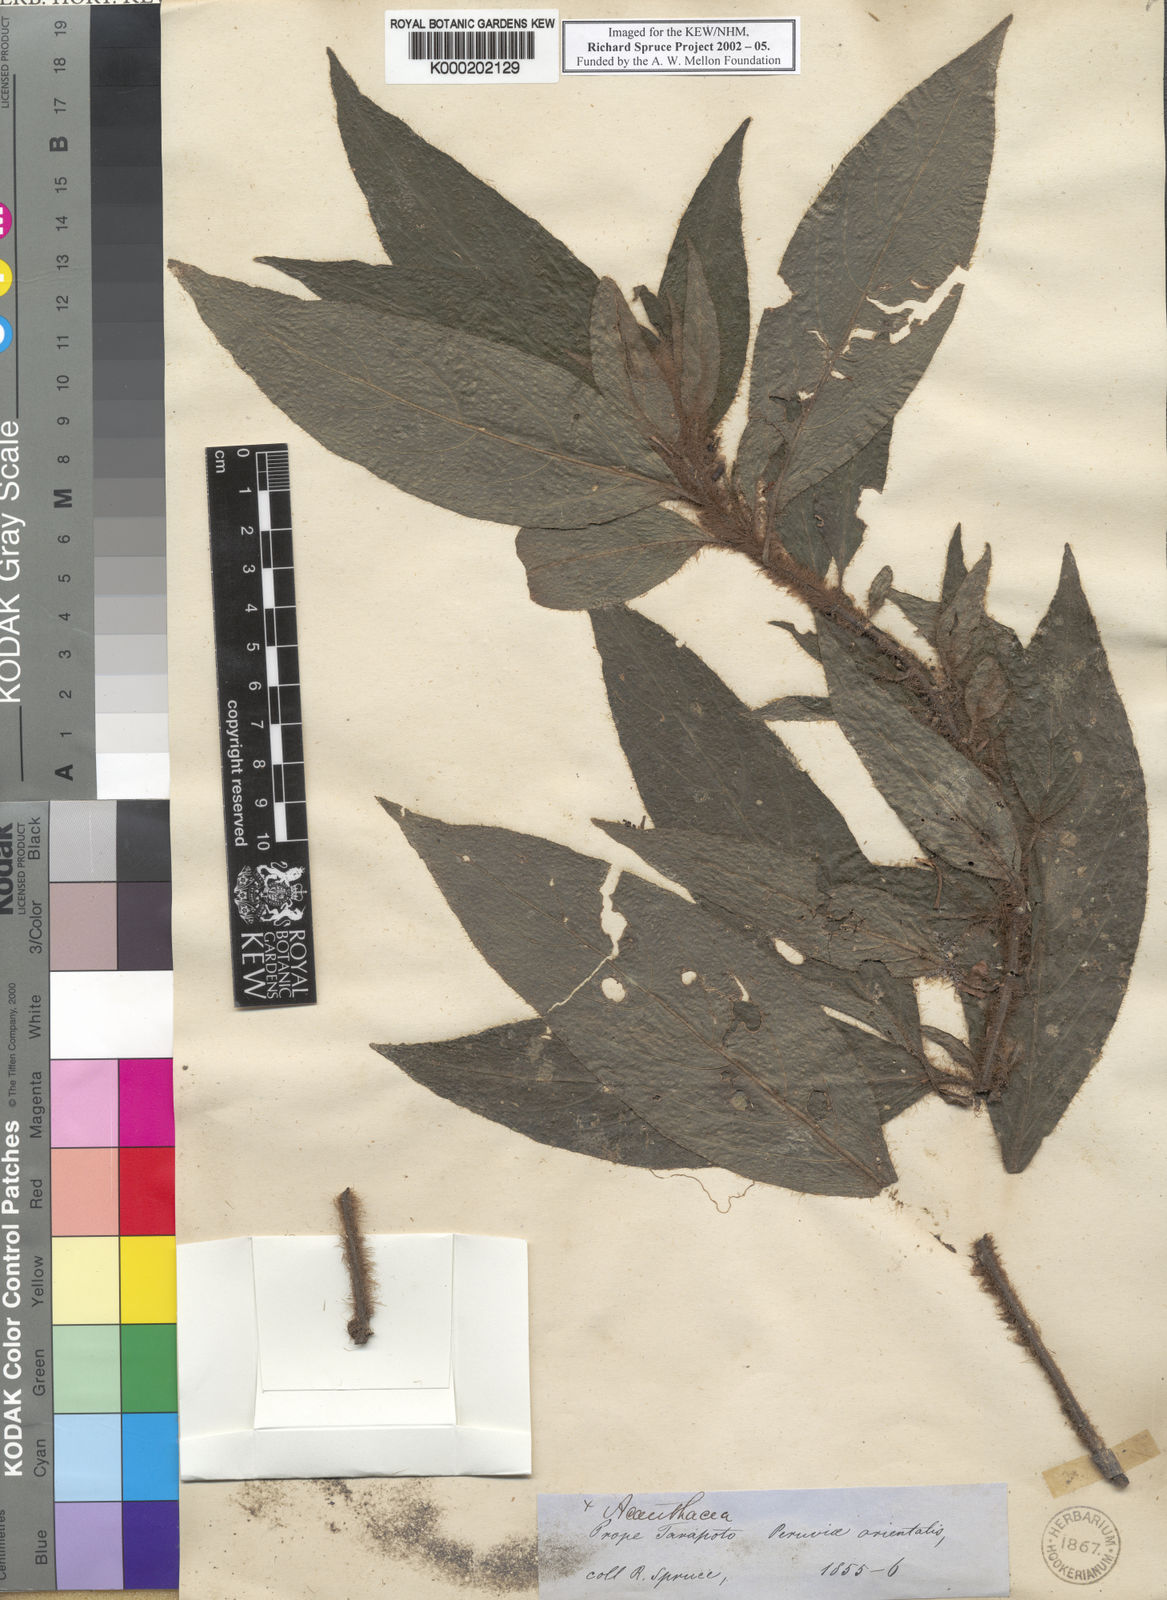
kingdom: Plantae
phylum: Tracheophyta
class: Magnoliopsida
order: Lamiales
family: Acanthaceae
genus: Ruellia
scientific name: Ruellia hirsutissima
